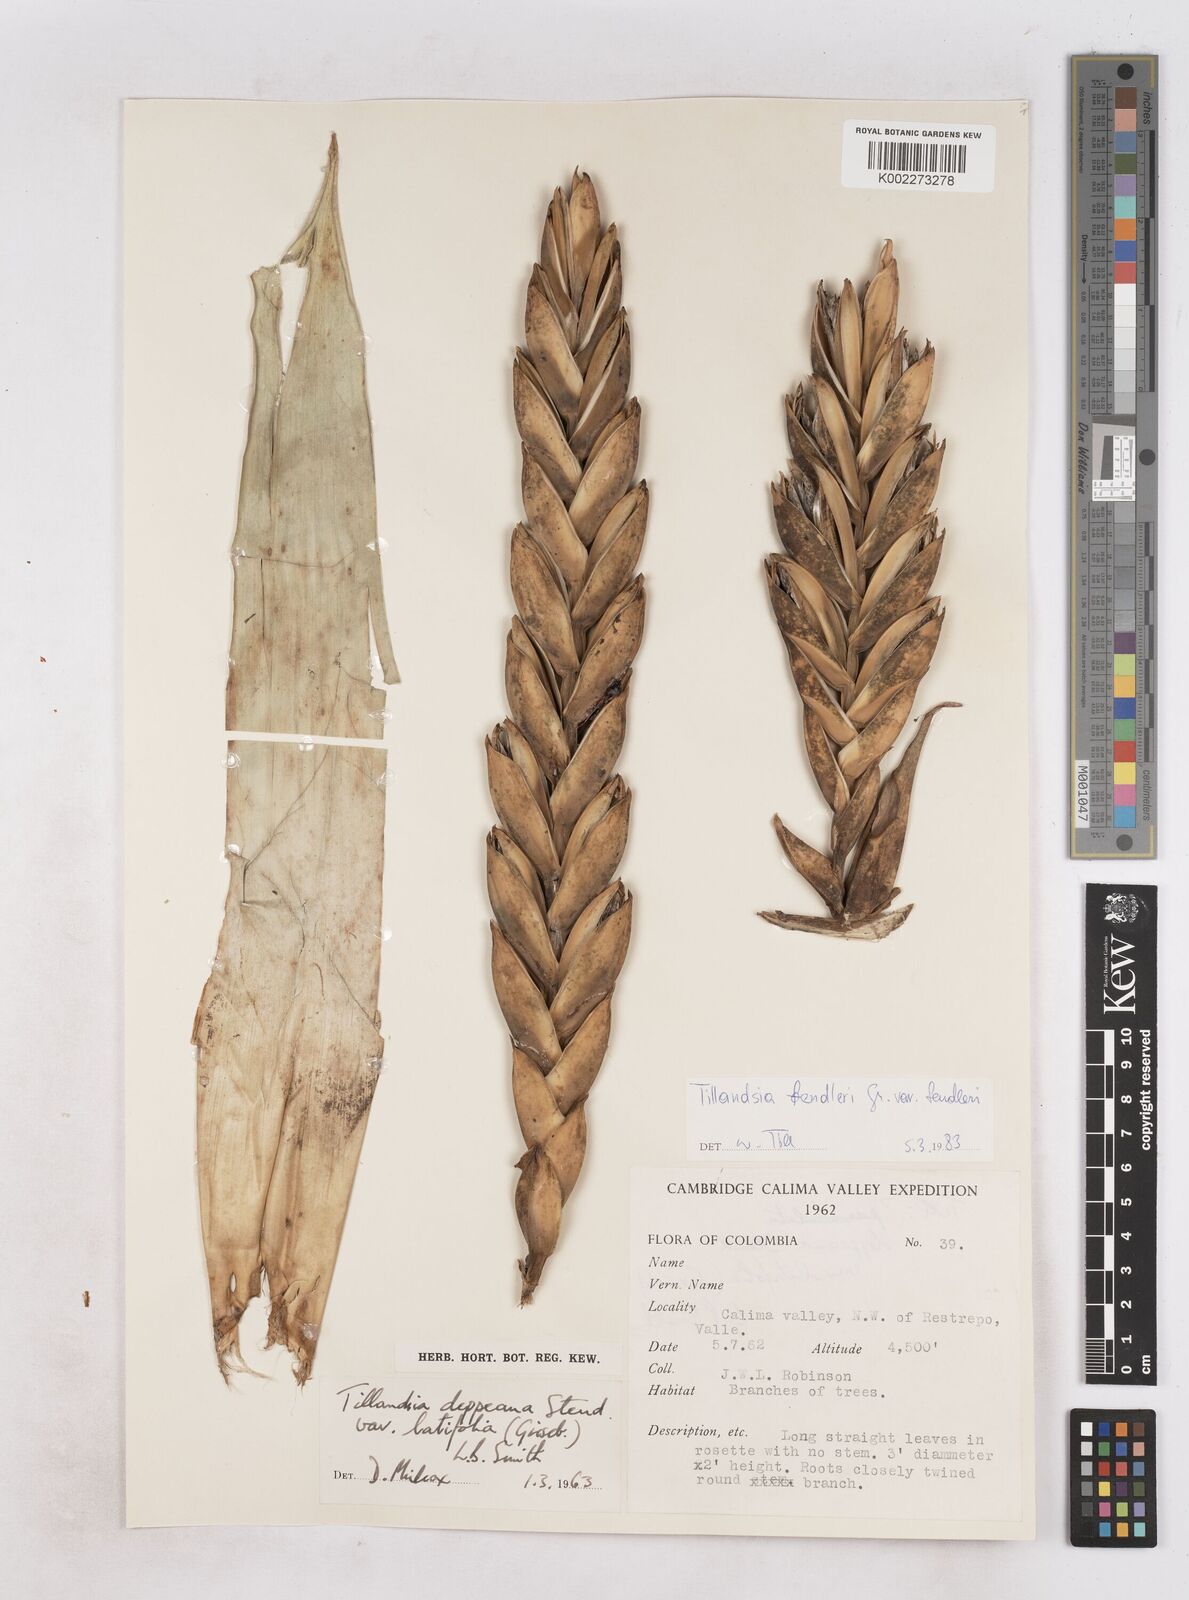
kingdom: Plantae
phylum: Tracheophyta
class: Liliopsida
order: Poales
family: Bromeliaceae
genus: Tillandsia
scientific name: Tillandsia fendleri
